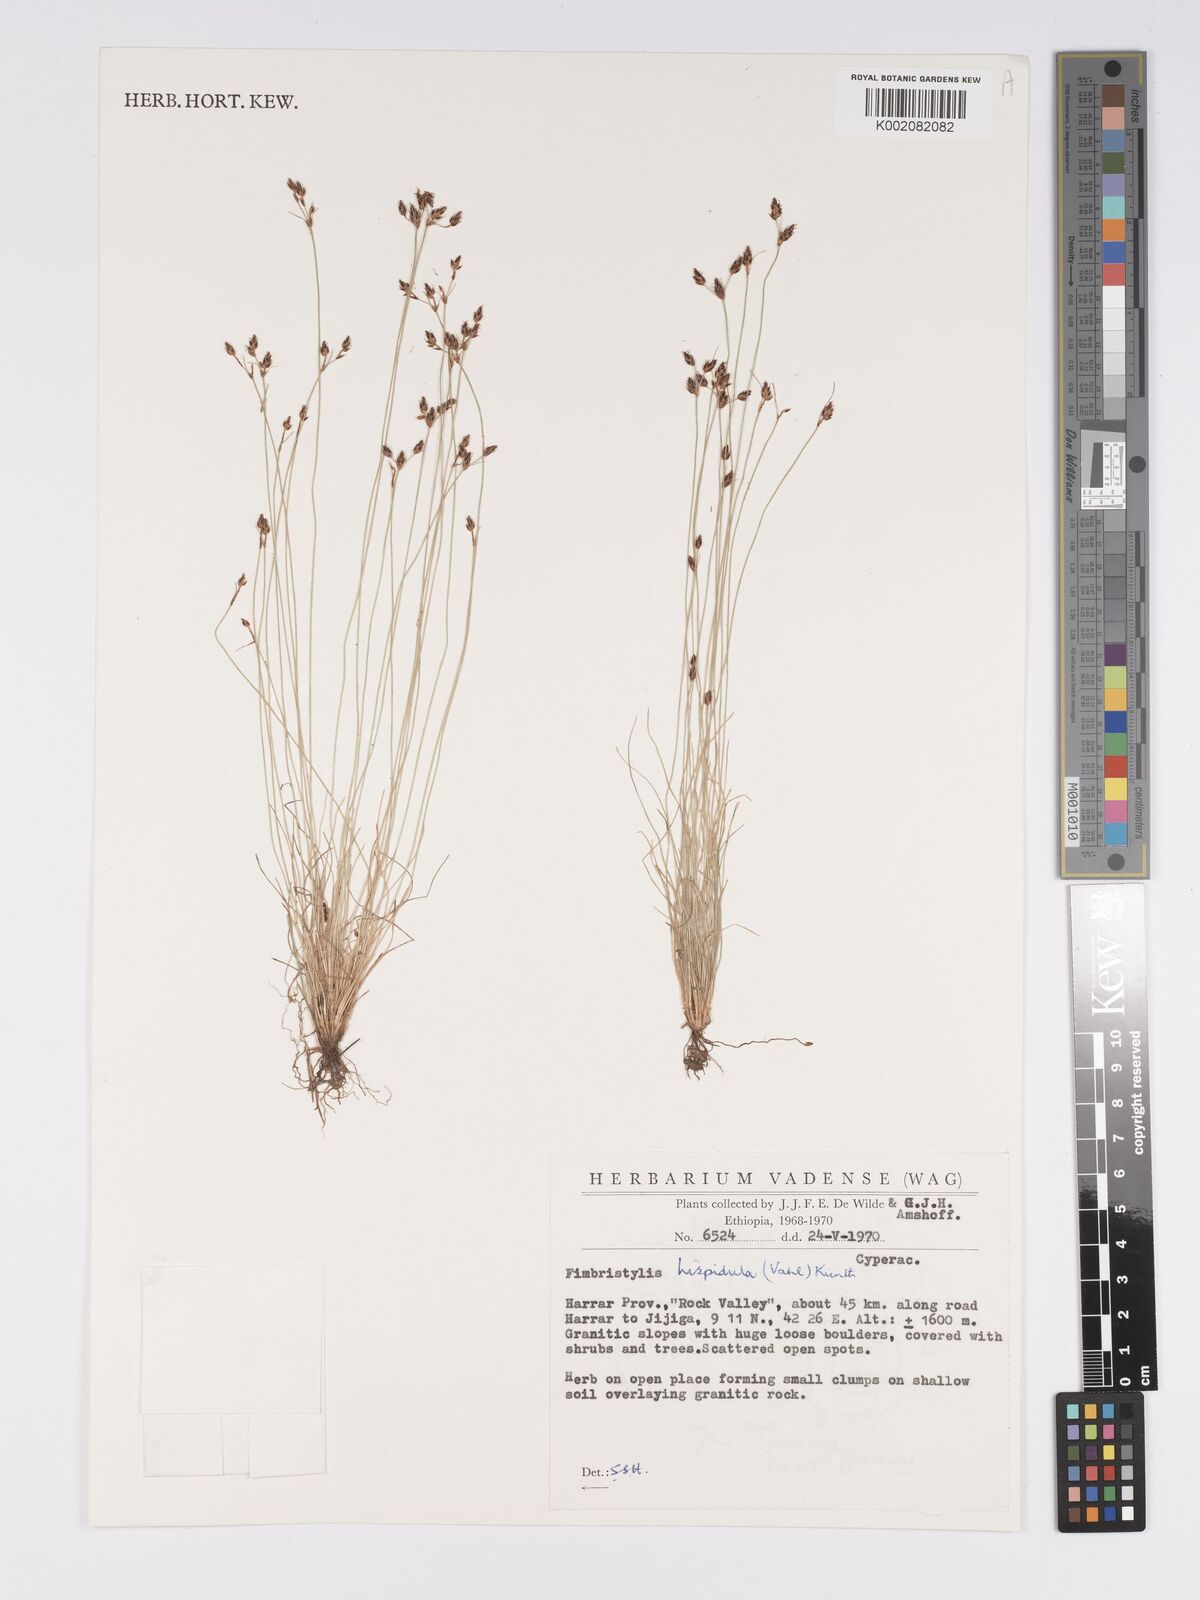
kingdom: Plantae
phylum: Tracheophyta
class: Liliopsida
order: Poales
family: Cyperaceae
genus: Bulbostylis
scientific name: Bulbostylis hispidula
